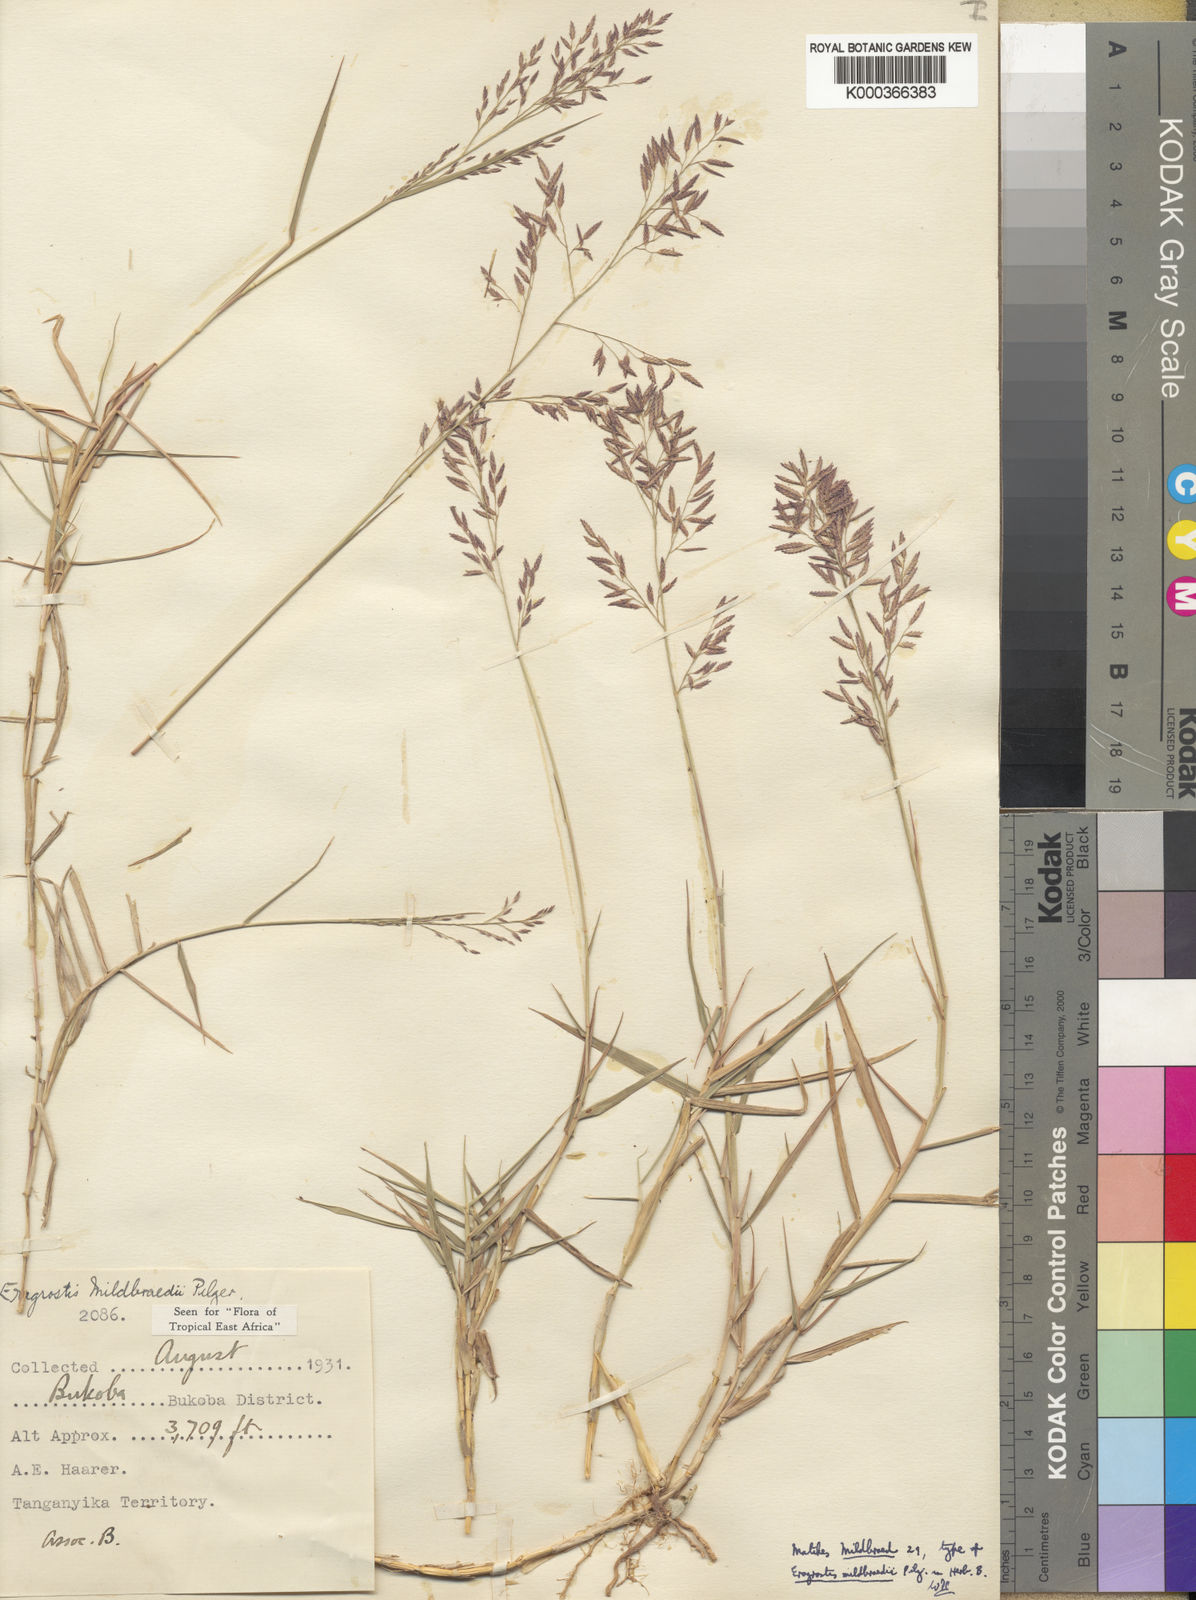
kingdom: Plantae
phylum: Tracheophyta
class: Liliopsida
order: Poales
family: Poaceae
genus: Eragrostis
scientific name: Eragrostis mildbraedii
